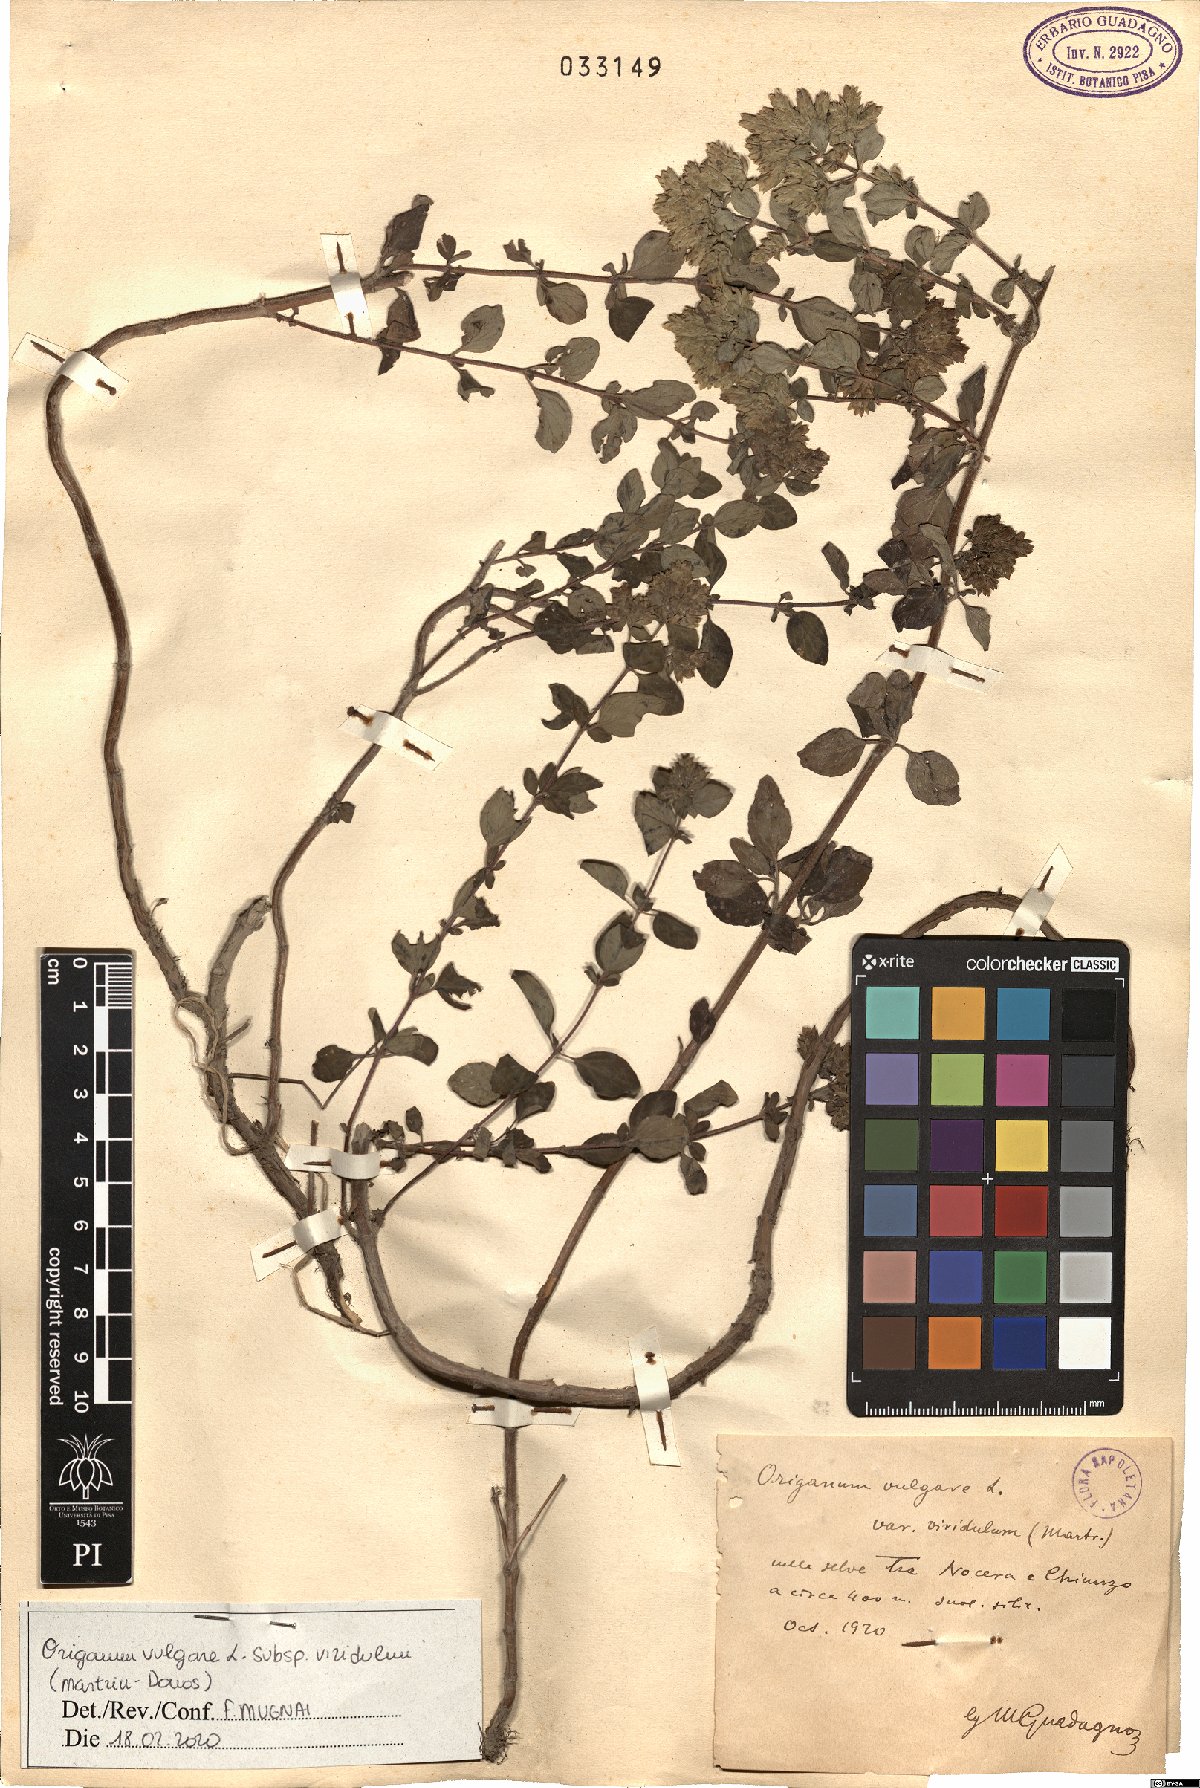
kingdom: Plantae
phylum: Tracheophyta
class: Magnoliopsida
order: Lamiales
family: Lamiaceae
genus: Origanum
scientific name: Origanum vulgare
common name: Wild marjoram
